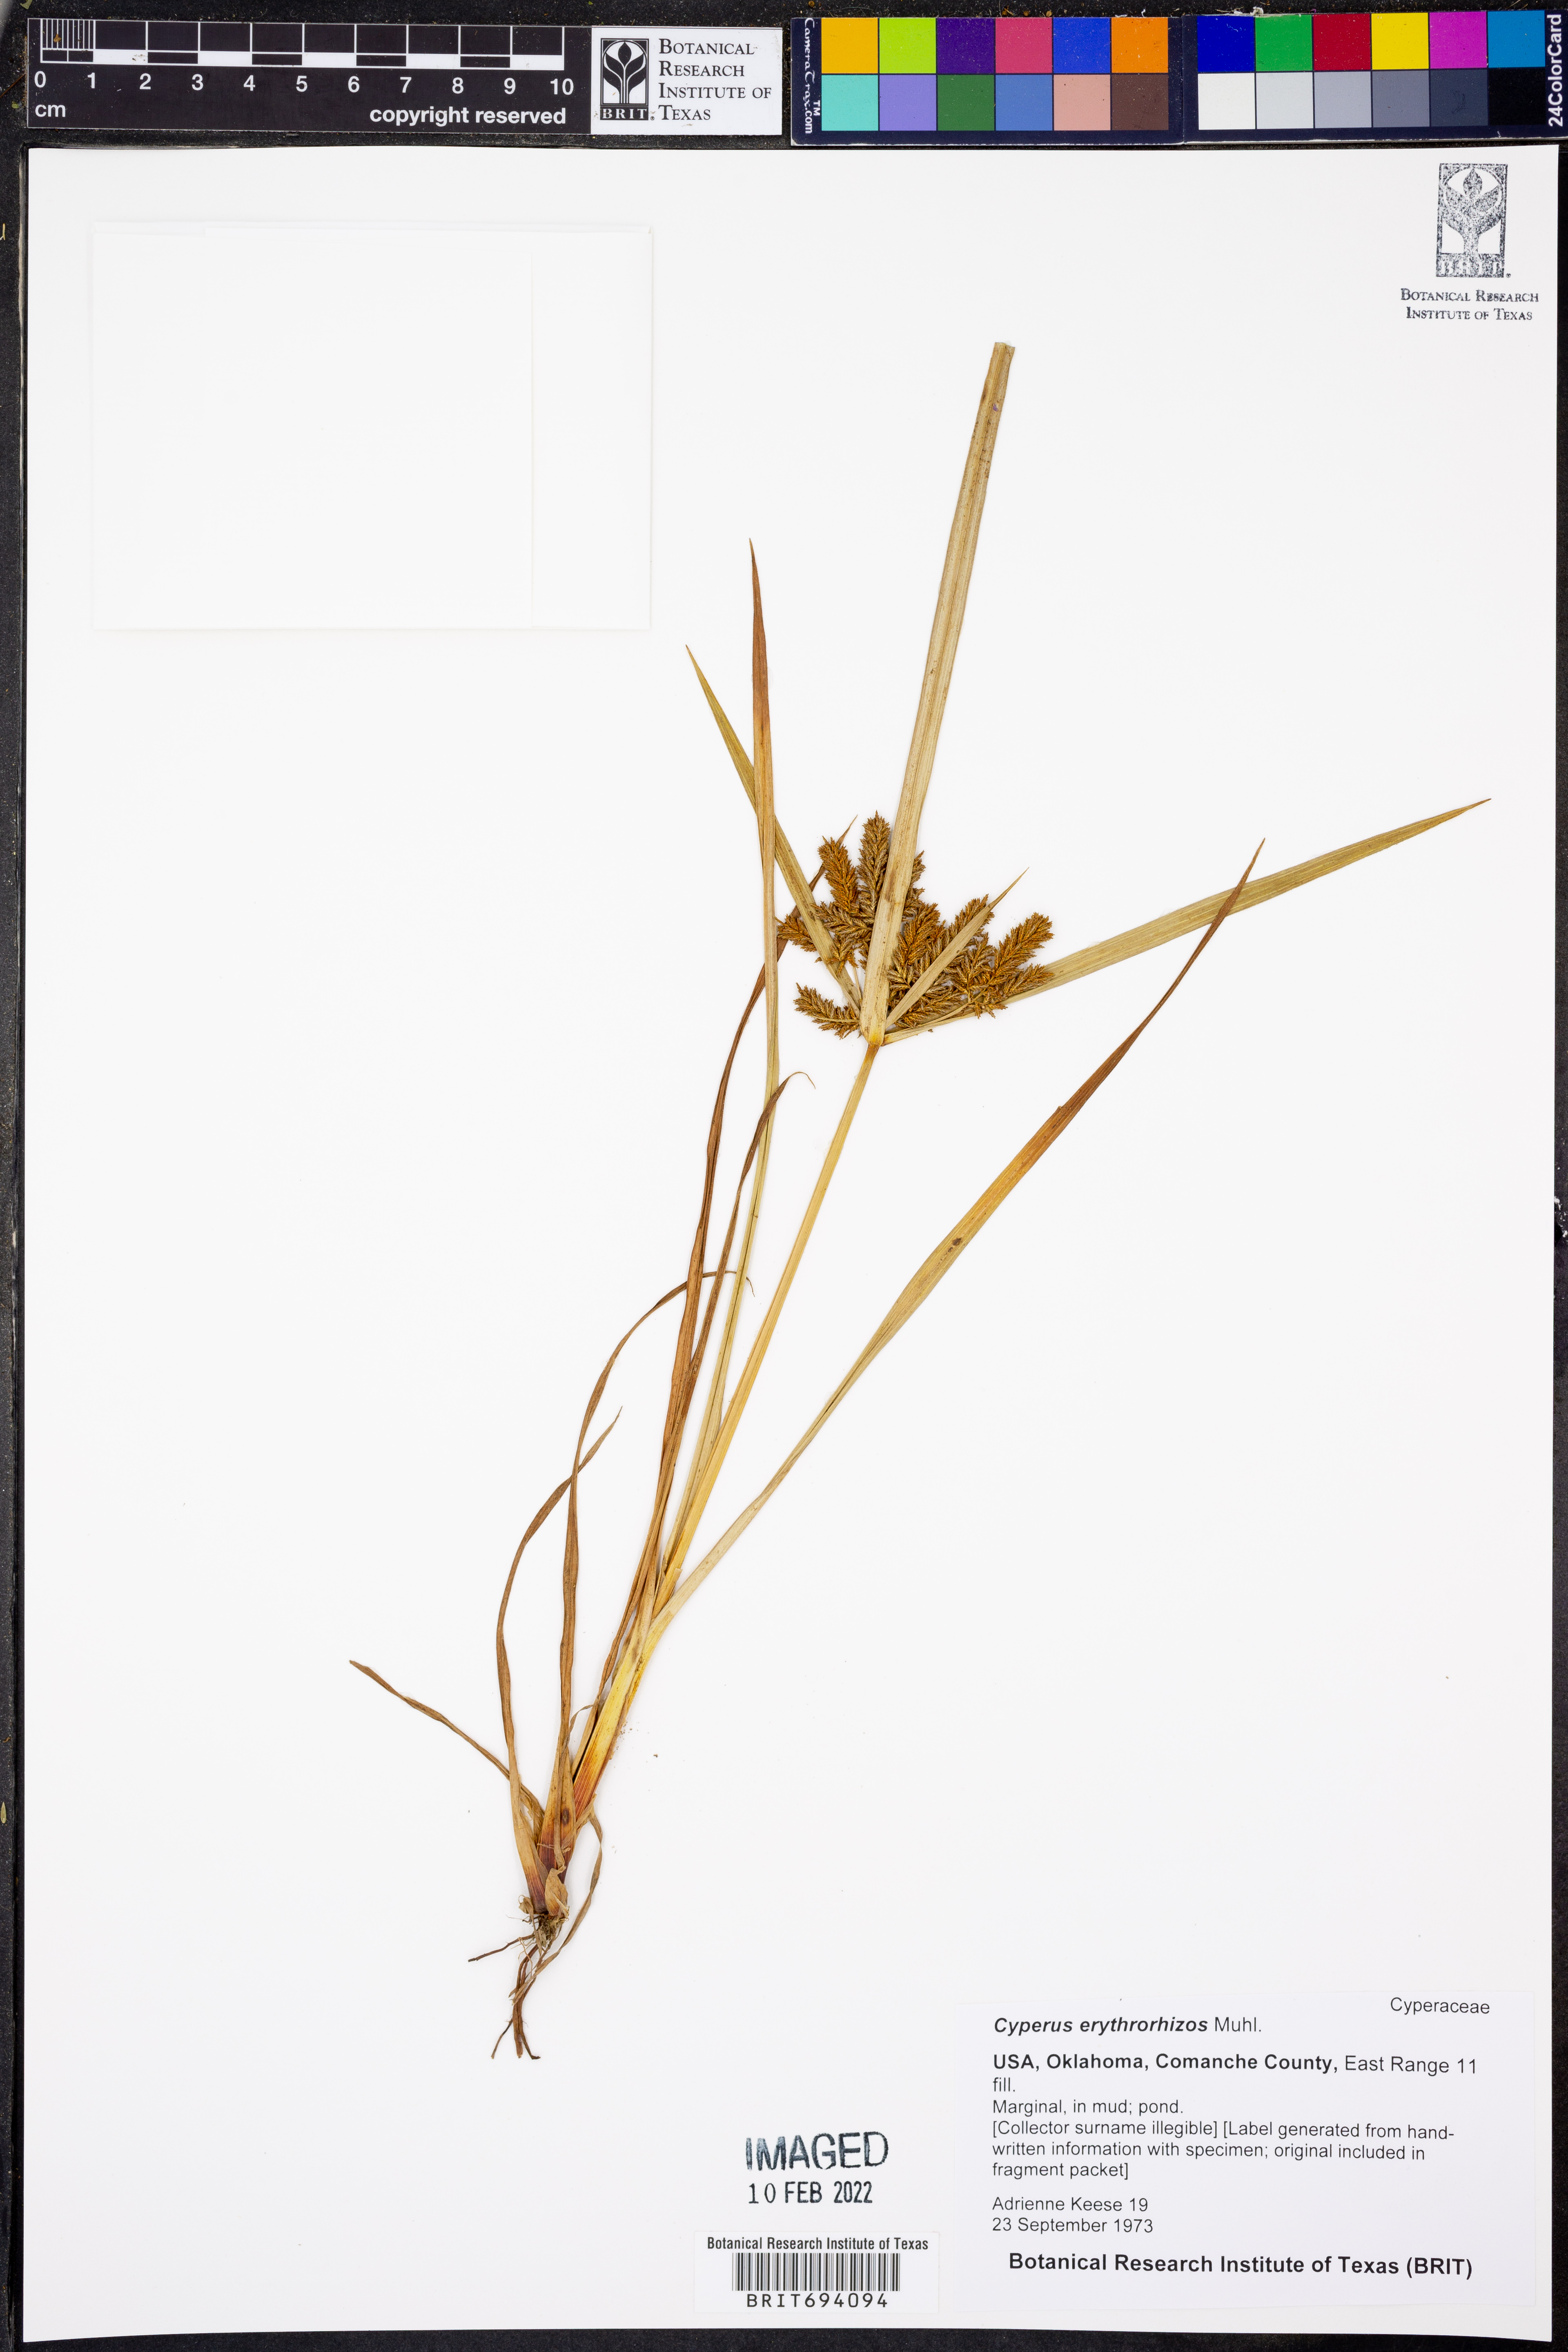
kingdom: Plantae
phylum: Tracheophyta
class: Liliopsida
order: Poales
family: Cyperaceae
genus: Cyperus
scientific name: Cyperus erythrorhizos
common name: Red-root flat sedge
